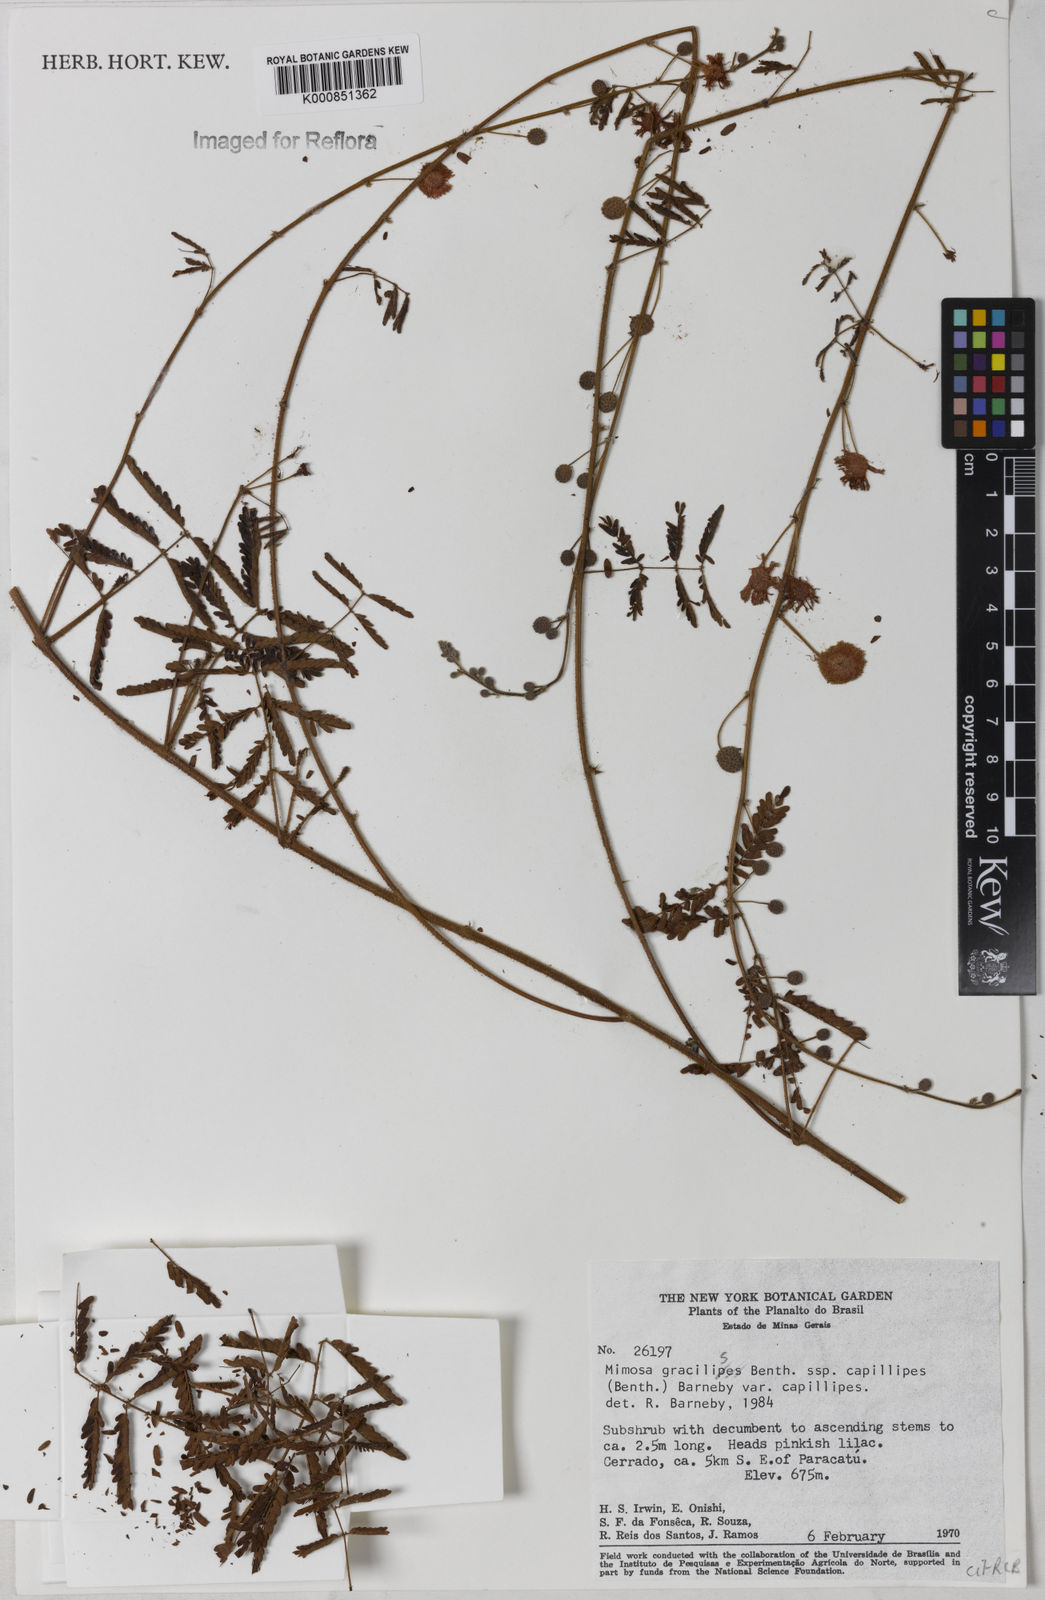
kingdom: Plantae
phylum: Tracheophyta
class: Magnoliopsida
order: Fabales
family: Fabaceae
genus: Mimosa
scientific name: Mimosa gracilis
